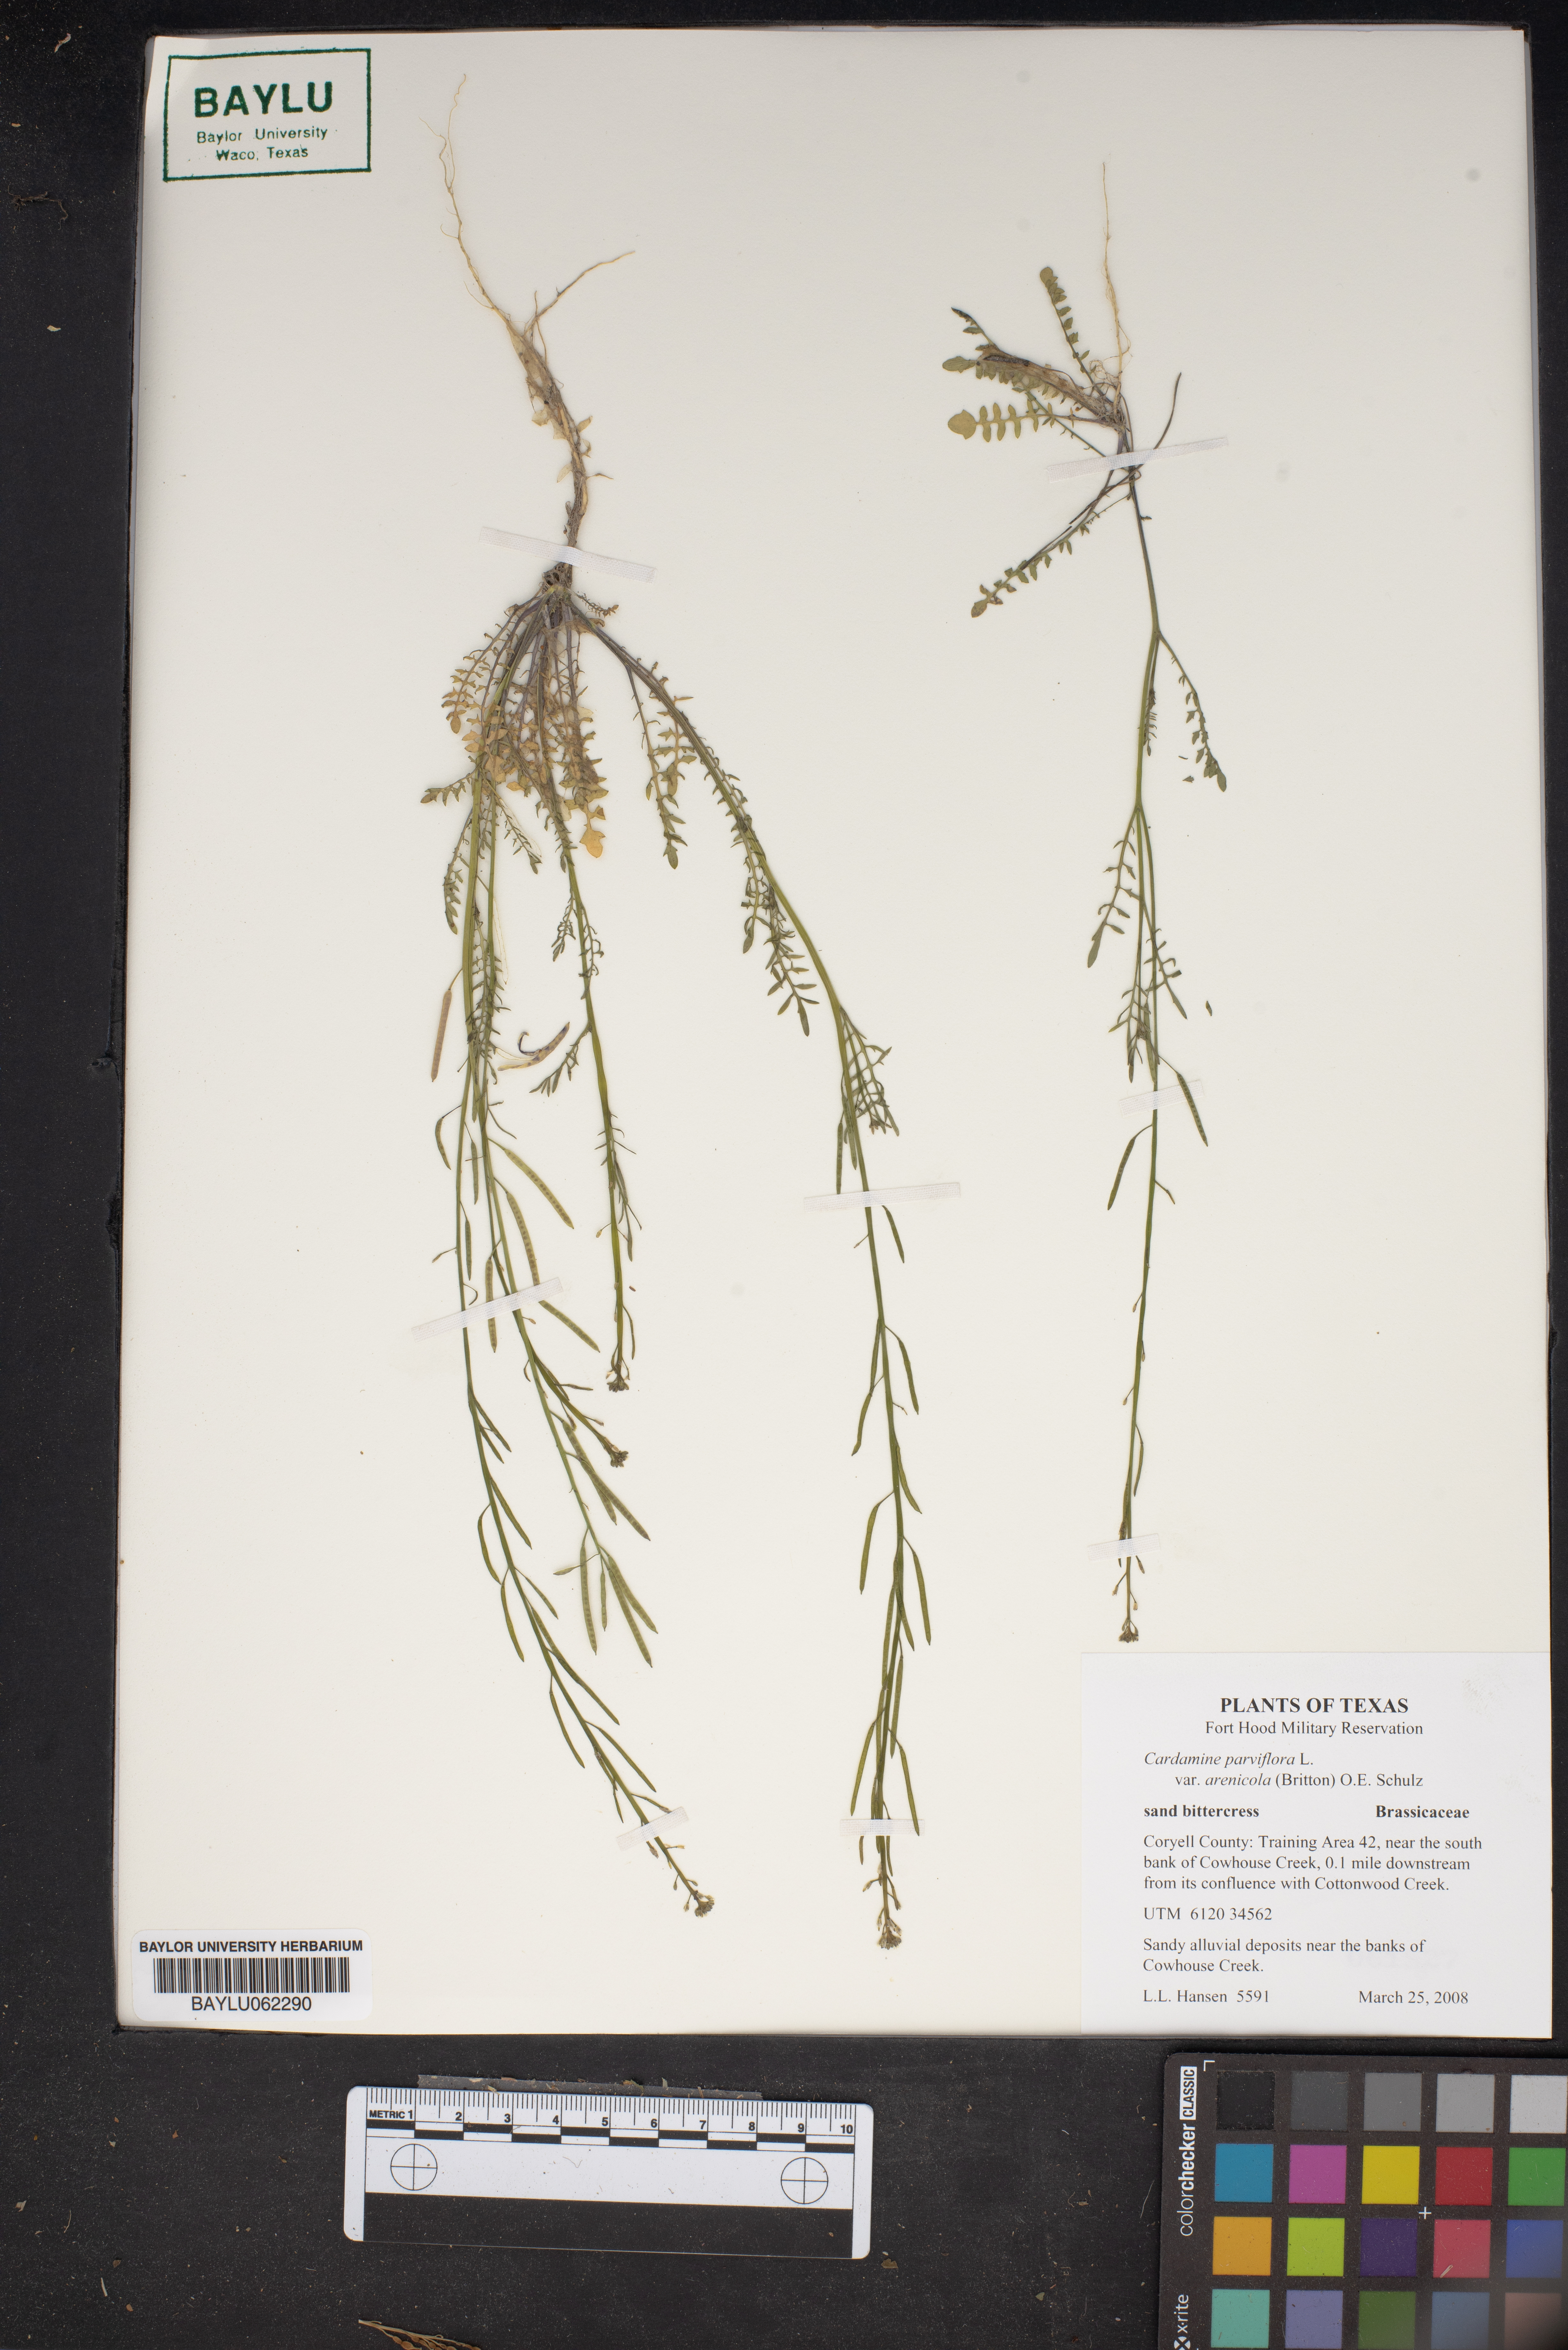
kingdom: Plantae
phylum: Tracheophyta
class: Magnoliopsida
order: Brassicales
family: Brassicaceae
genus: Cardamine
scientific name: Cardamine parviflora
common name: Sand bittercress
